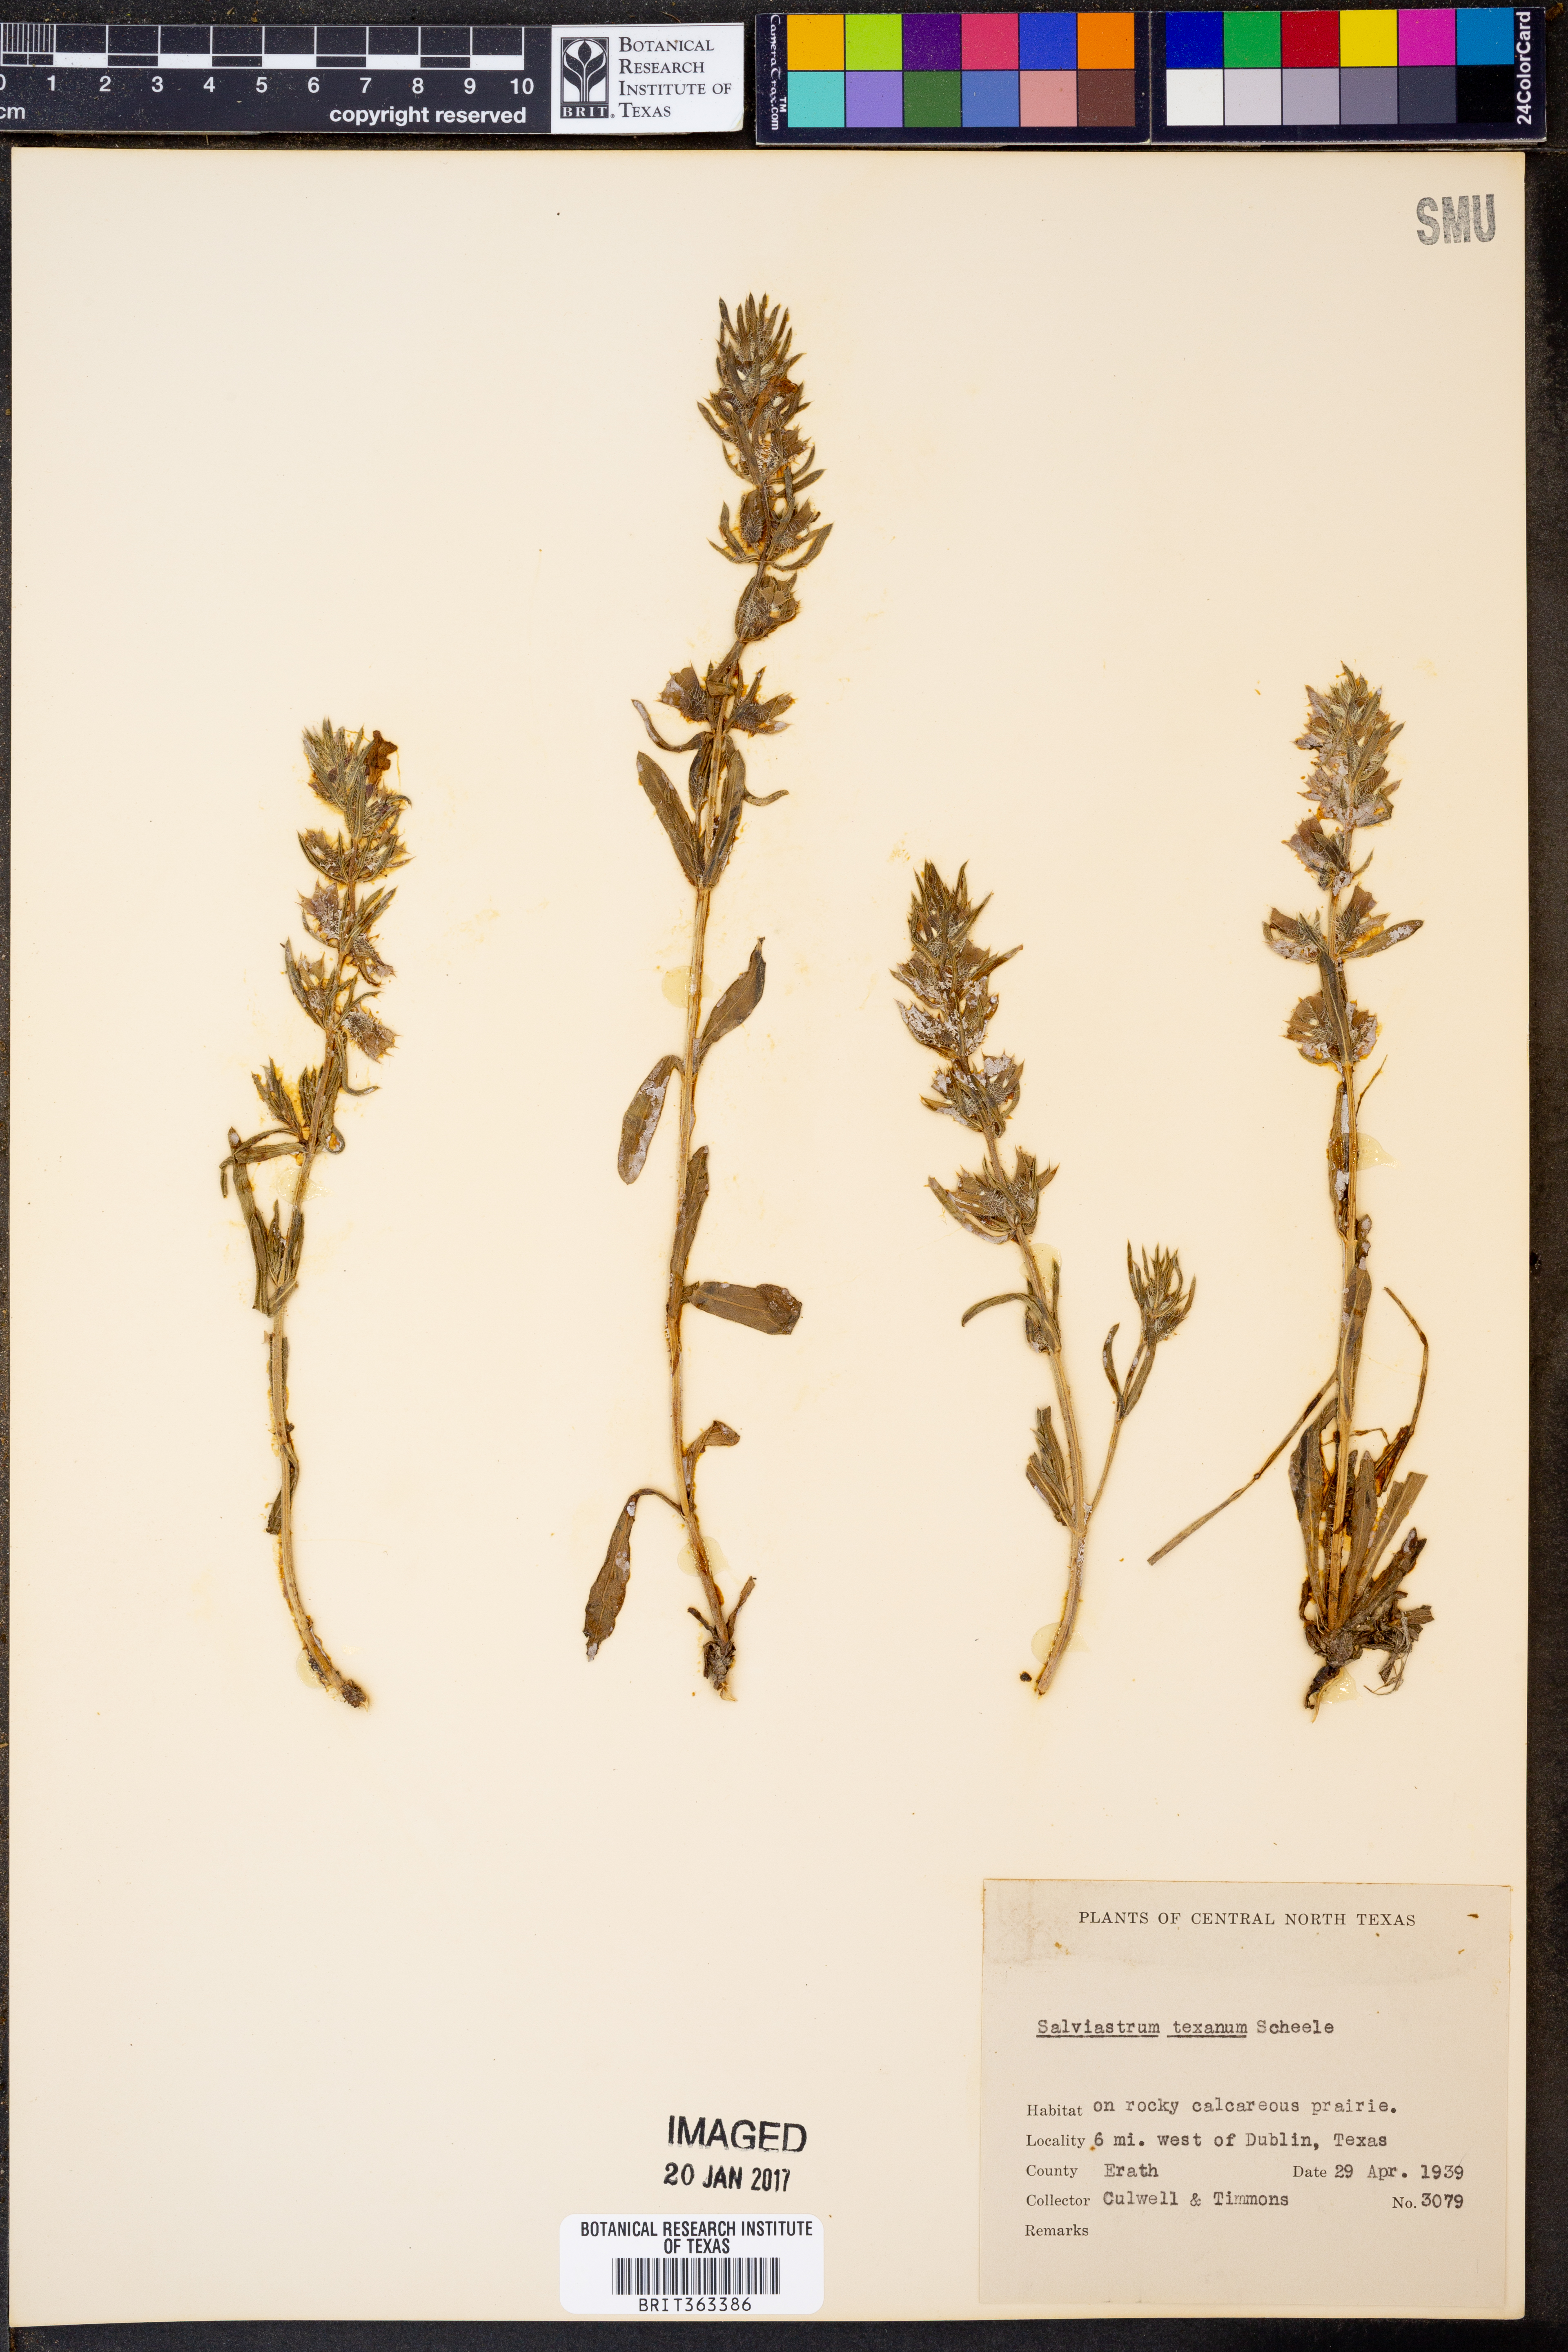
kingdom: Plantae
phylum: Tracheophyta
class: Magnoliopsida
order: Lamiales
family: Lamiaceae
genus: Salvia
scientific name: Salvia texana
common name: Texas sage
